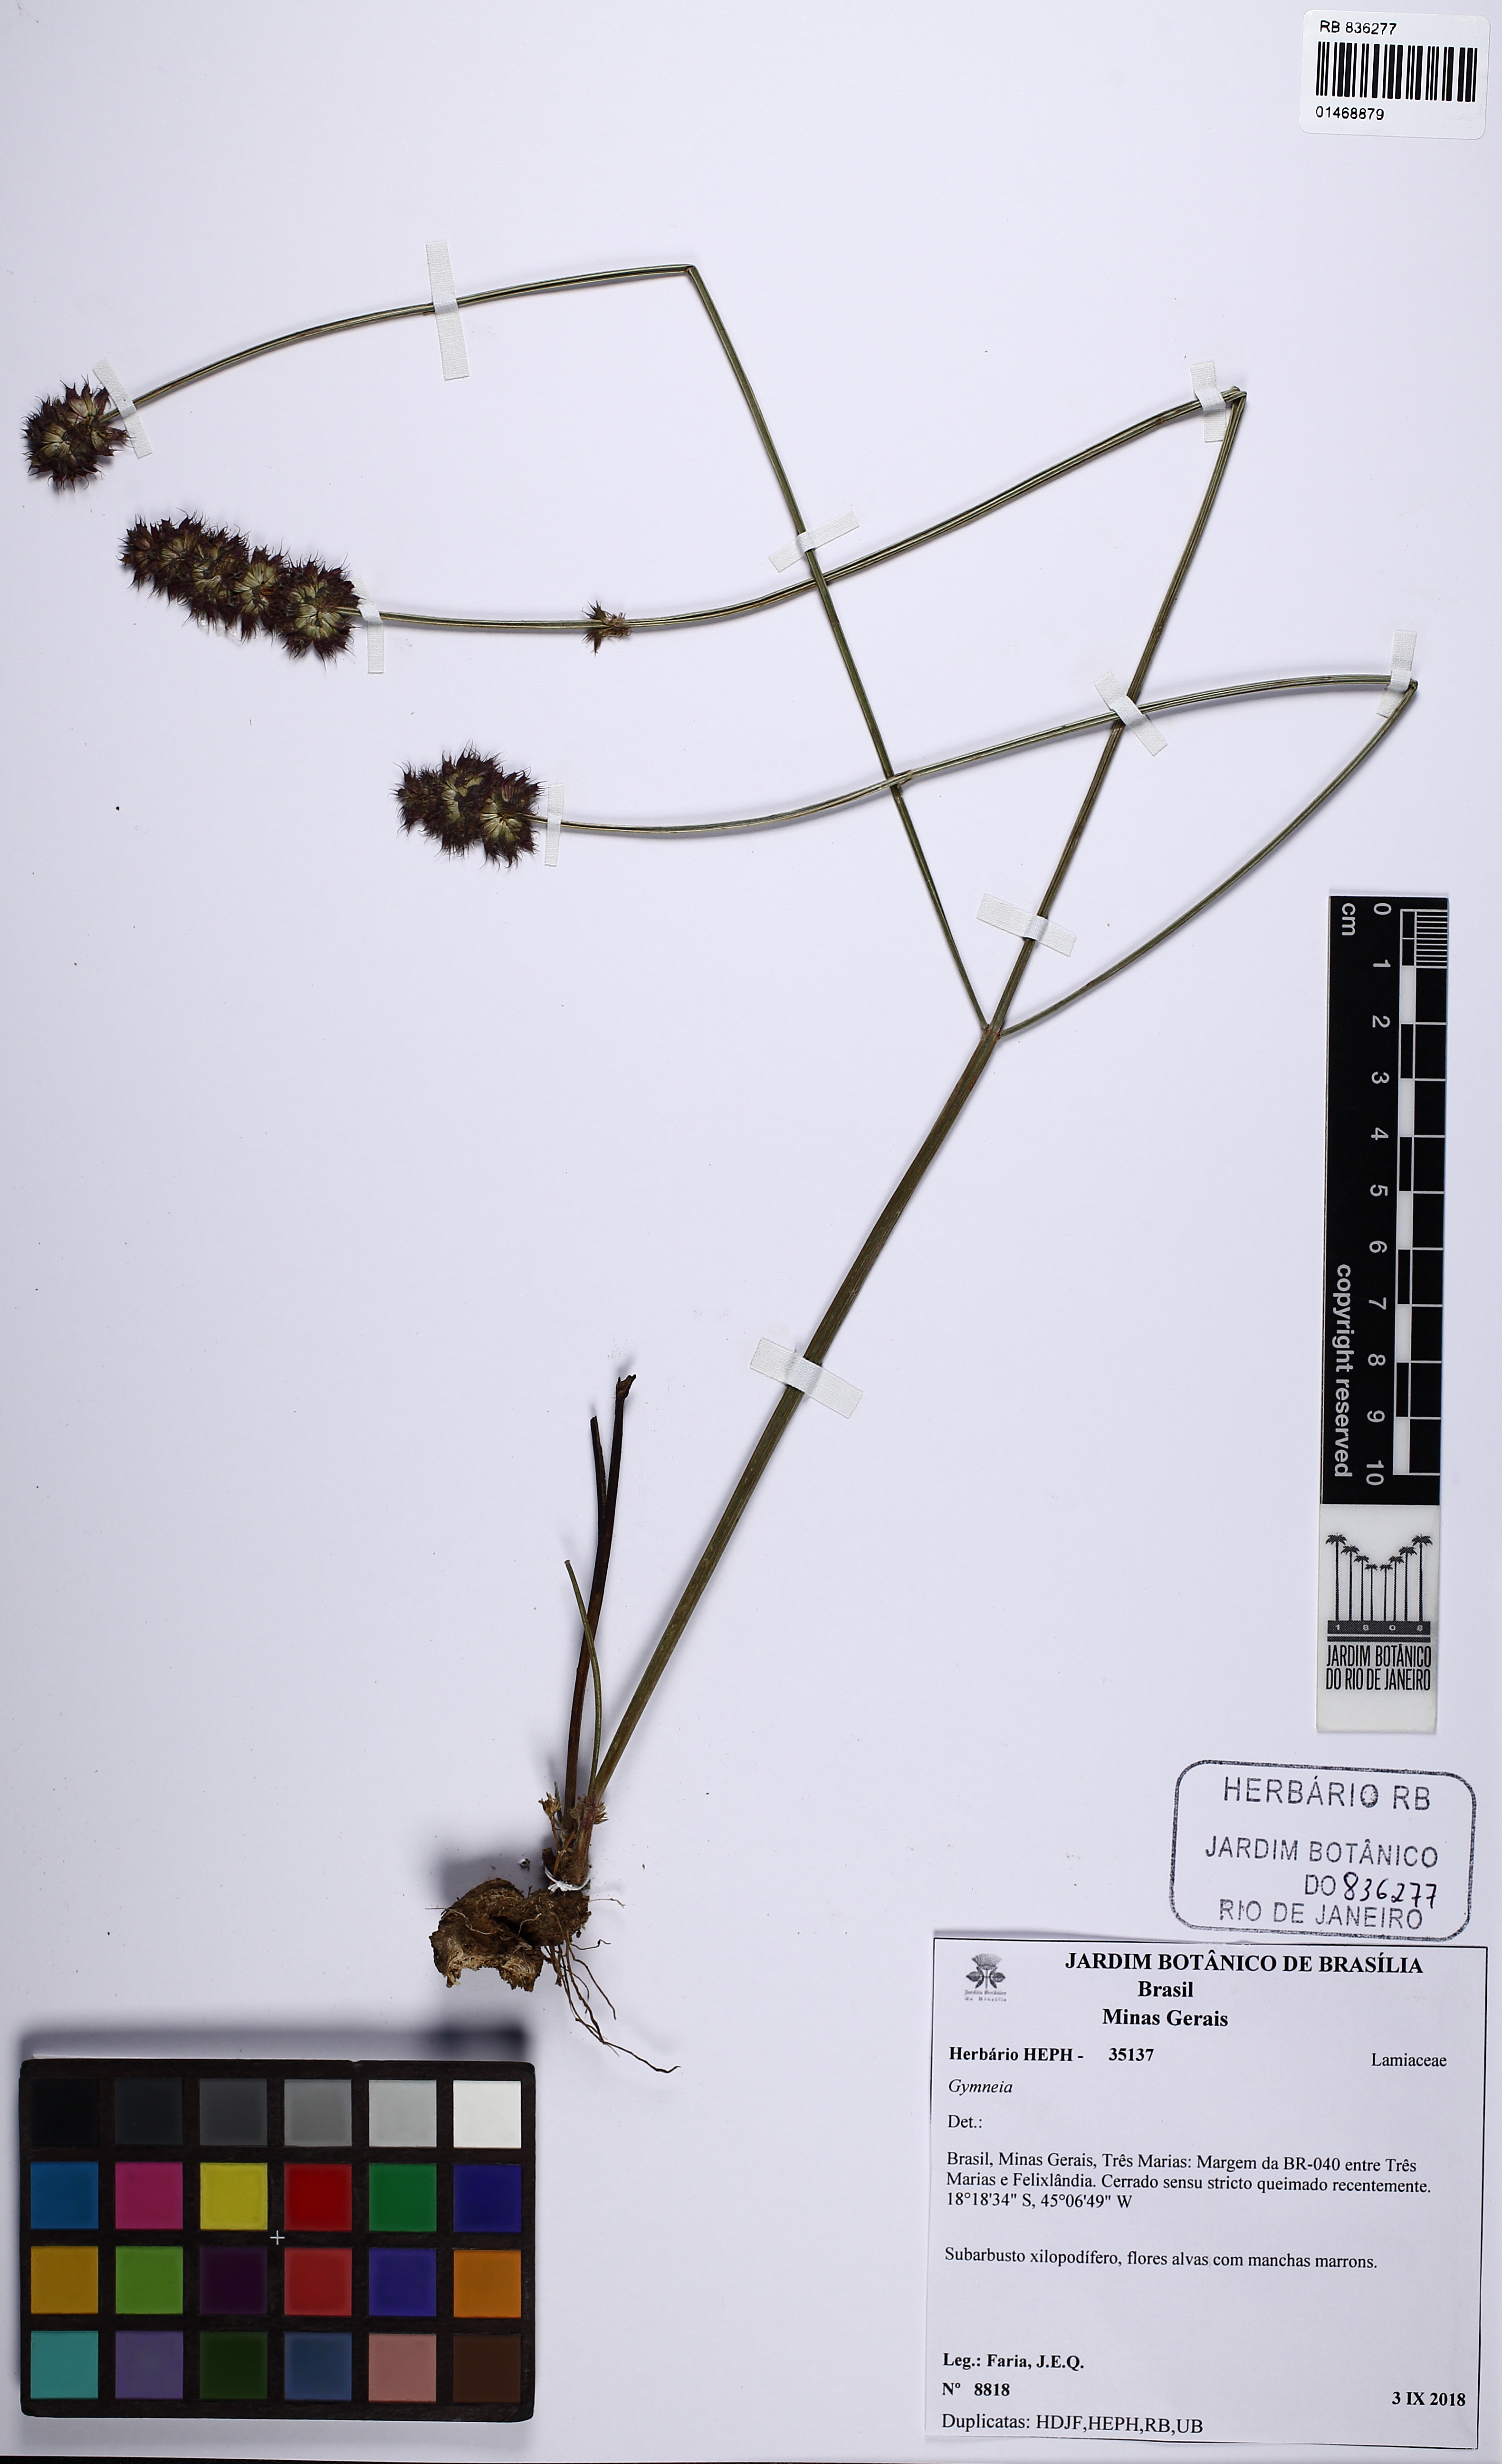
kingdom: Plantae
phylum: Tracheophyta
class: Magnoliopsida
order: Lamiales
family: Lamiaceae
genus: Gymneia
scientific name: Gymneia
